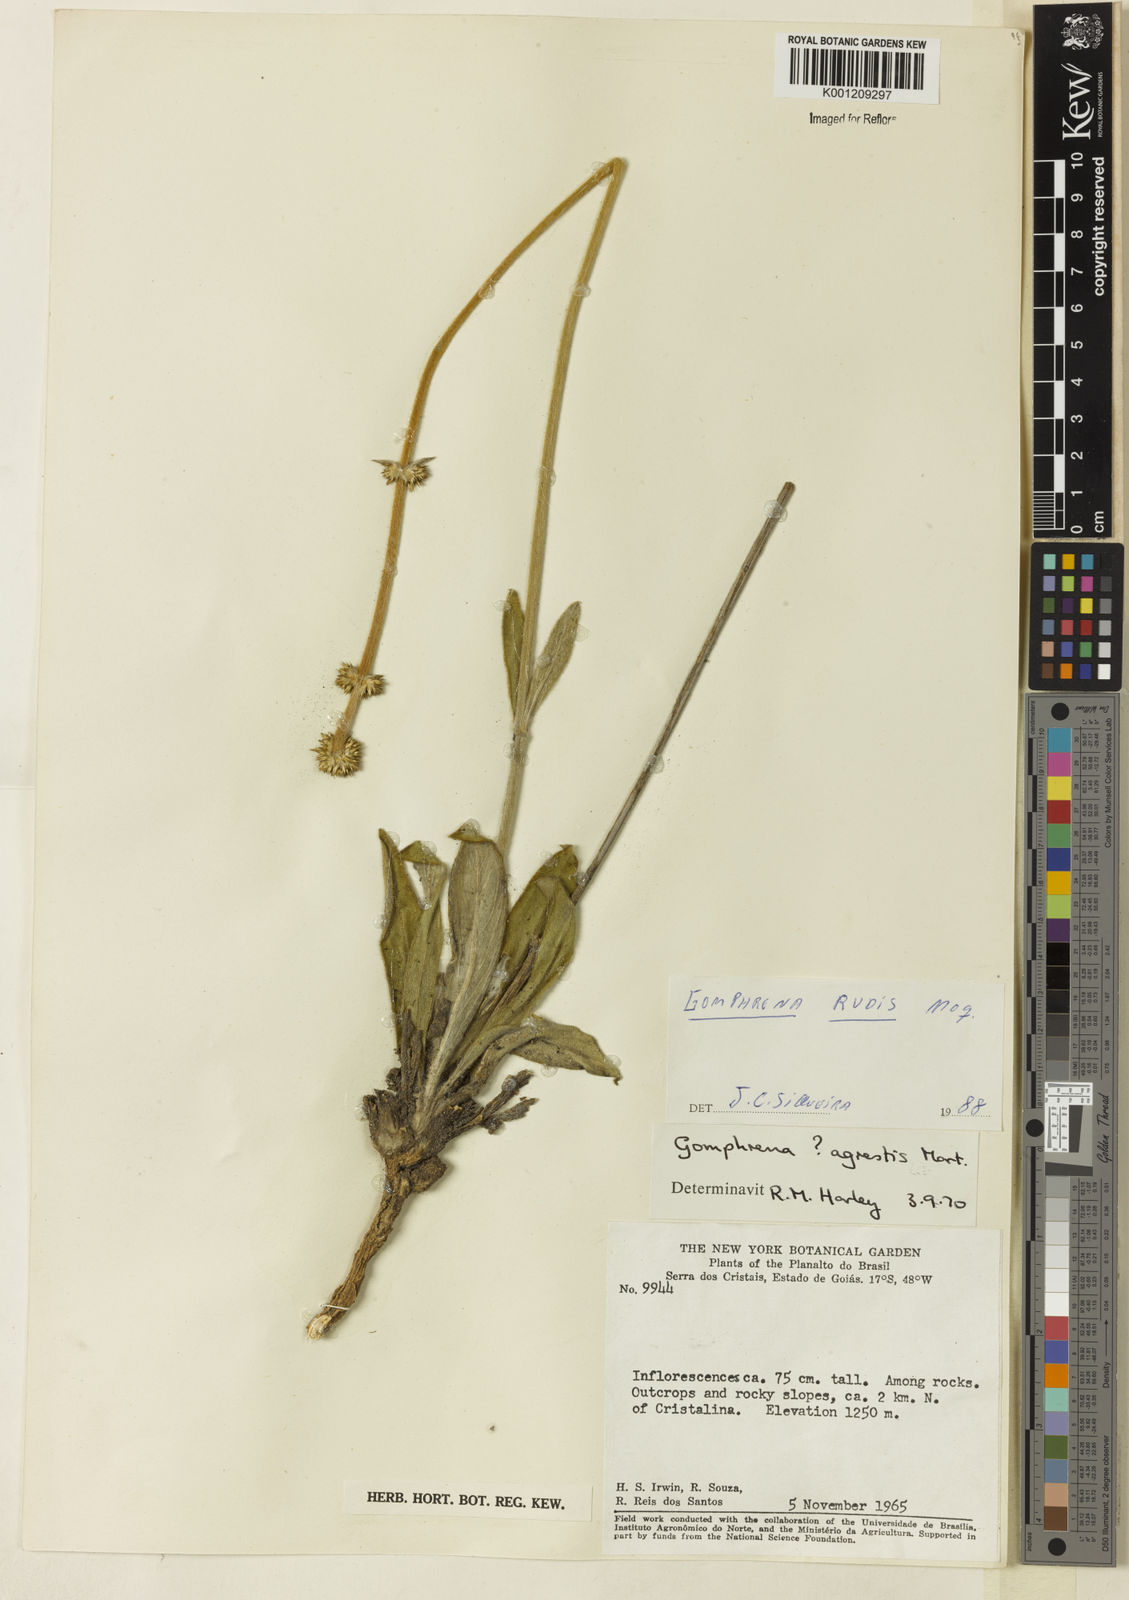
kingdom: Plantae
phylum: Tracheophyta
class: Magnoliopsida
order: Caryophyllales
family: Amaranthaceae
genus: Gomphrena
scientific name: Gomphrena rudis
